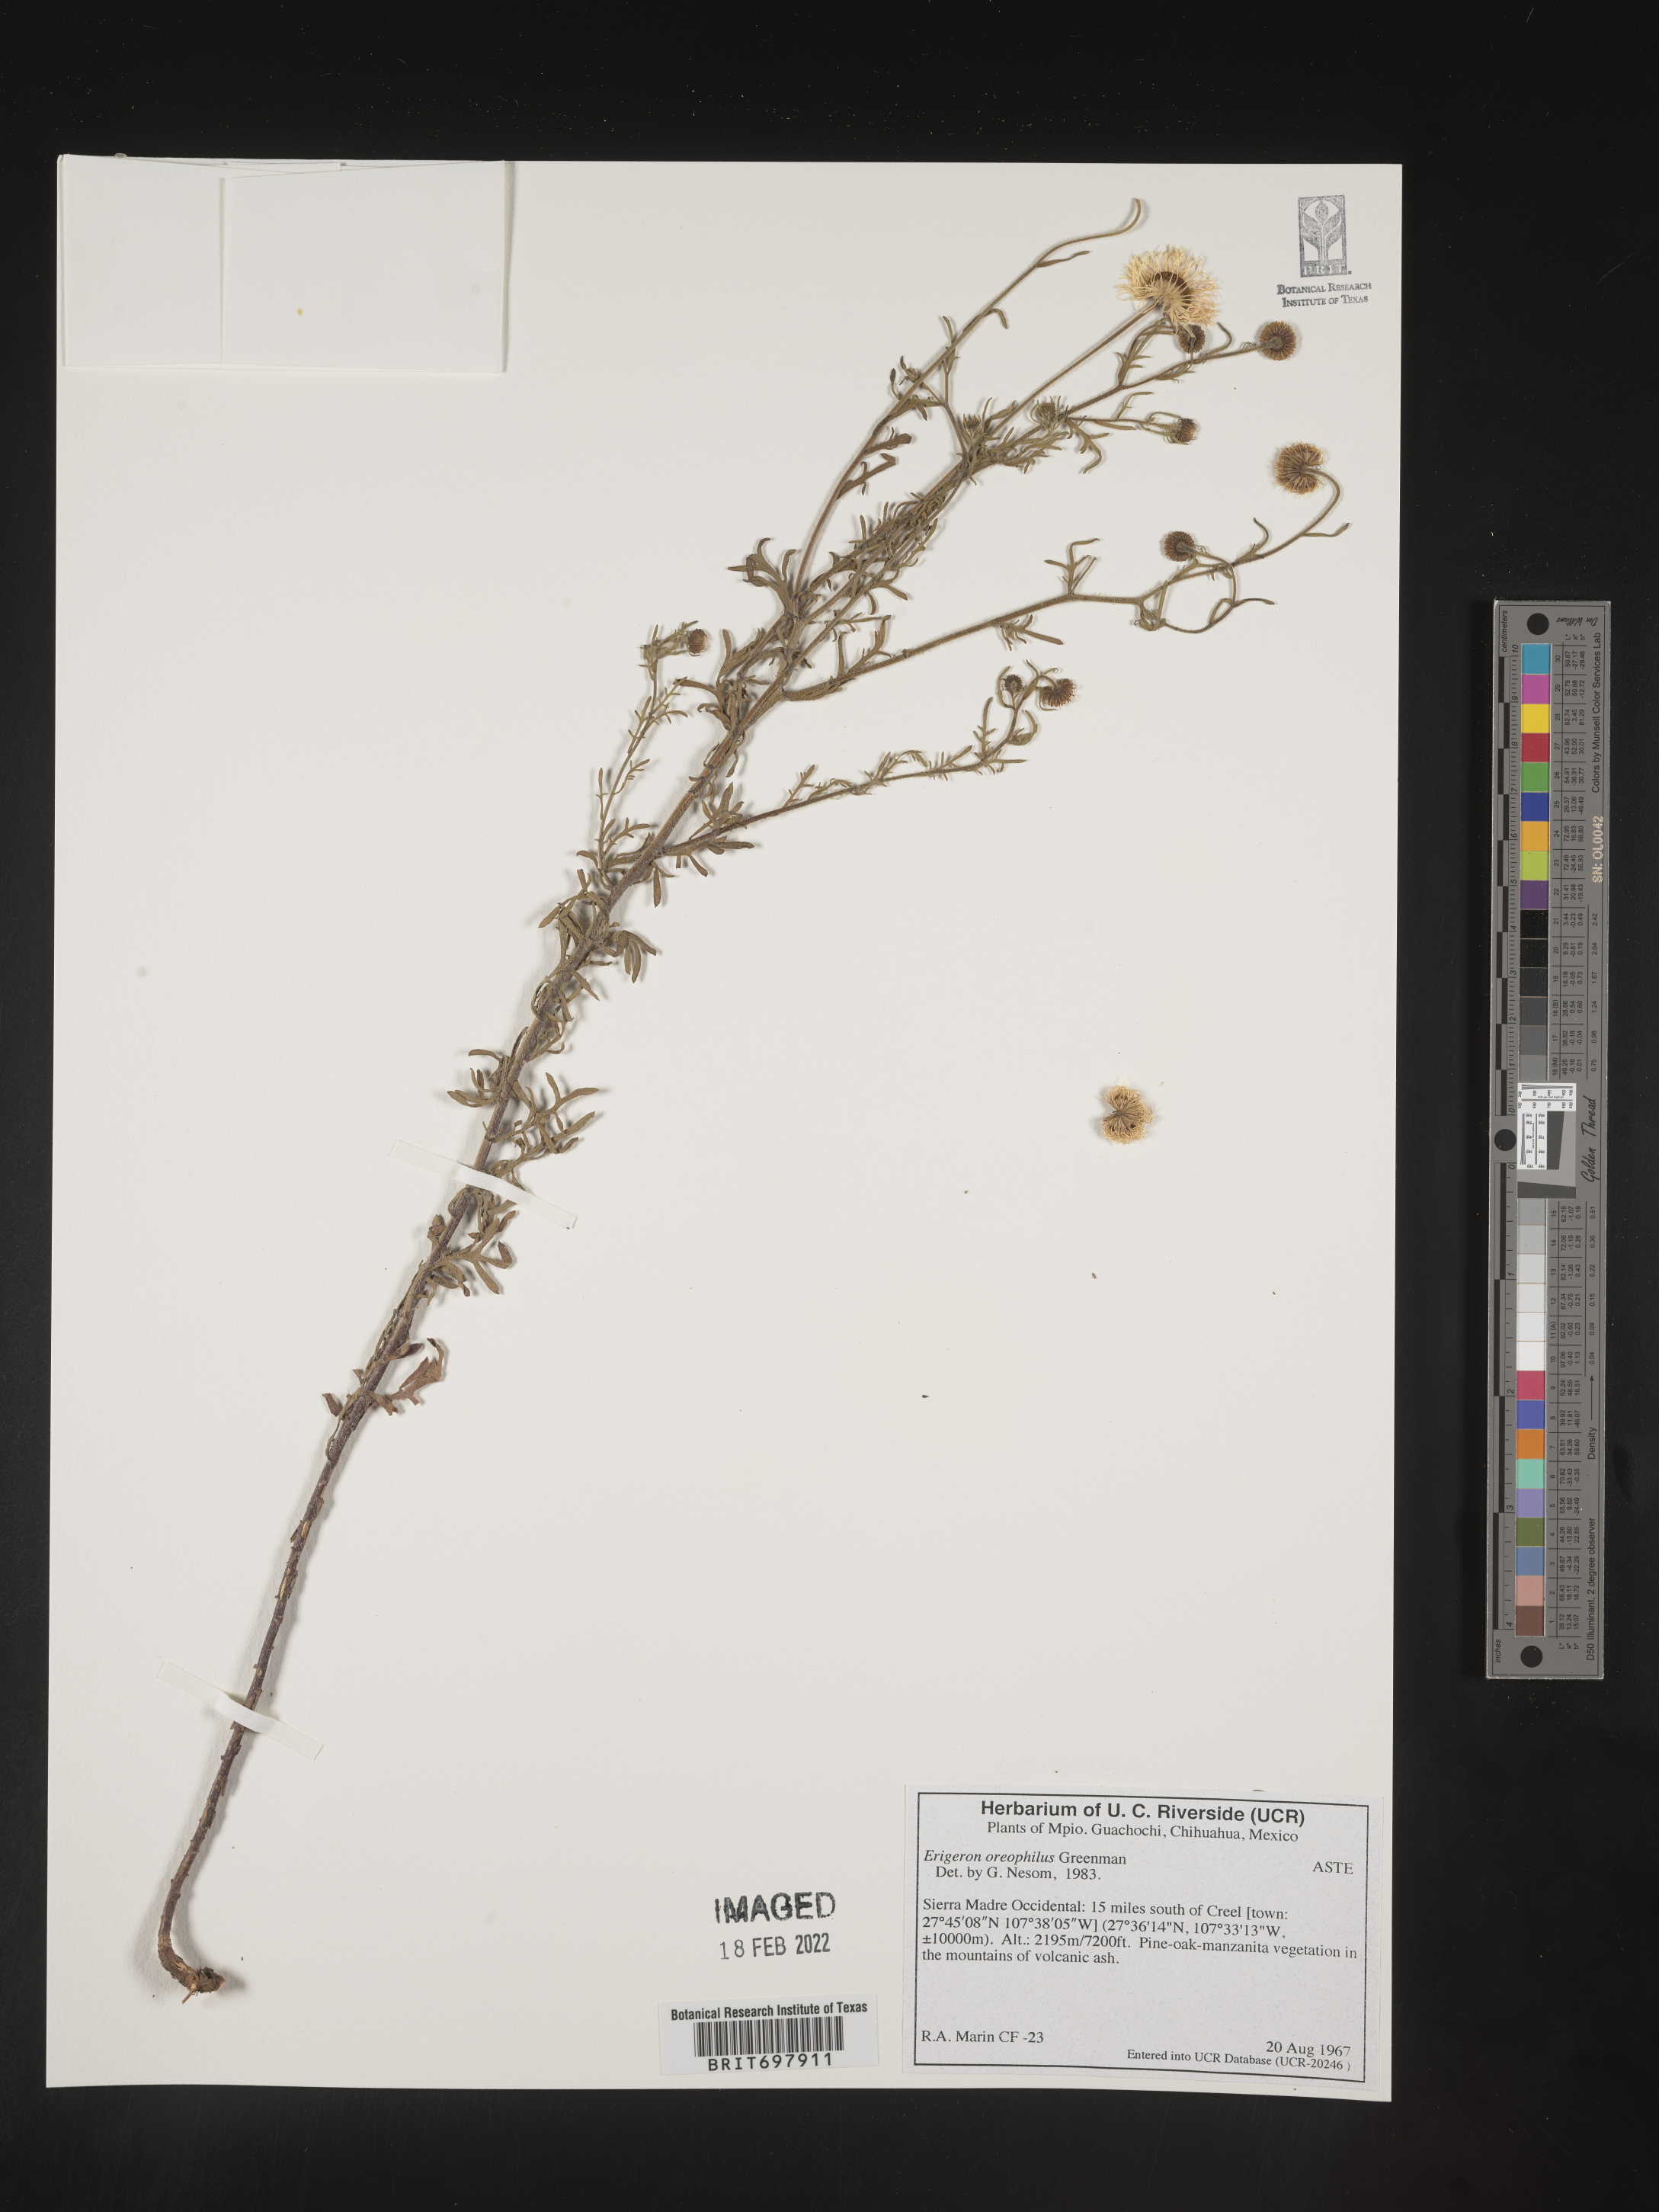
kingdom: Plantae
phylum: Tracheophyta
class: Magnoliopsida
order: Asterales
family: Asteraceae
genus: Erigeron
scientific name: Erigeron oreophilus
